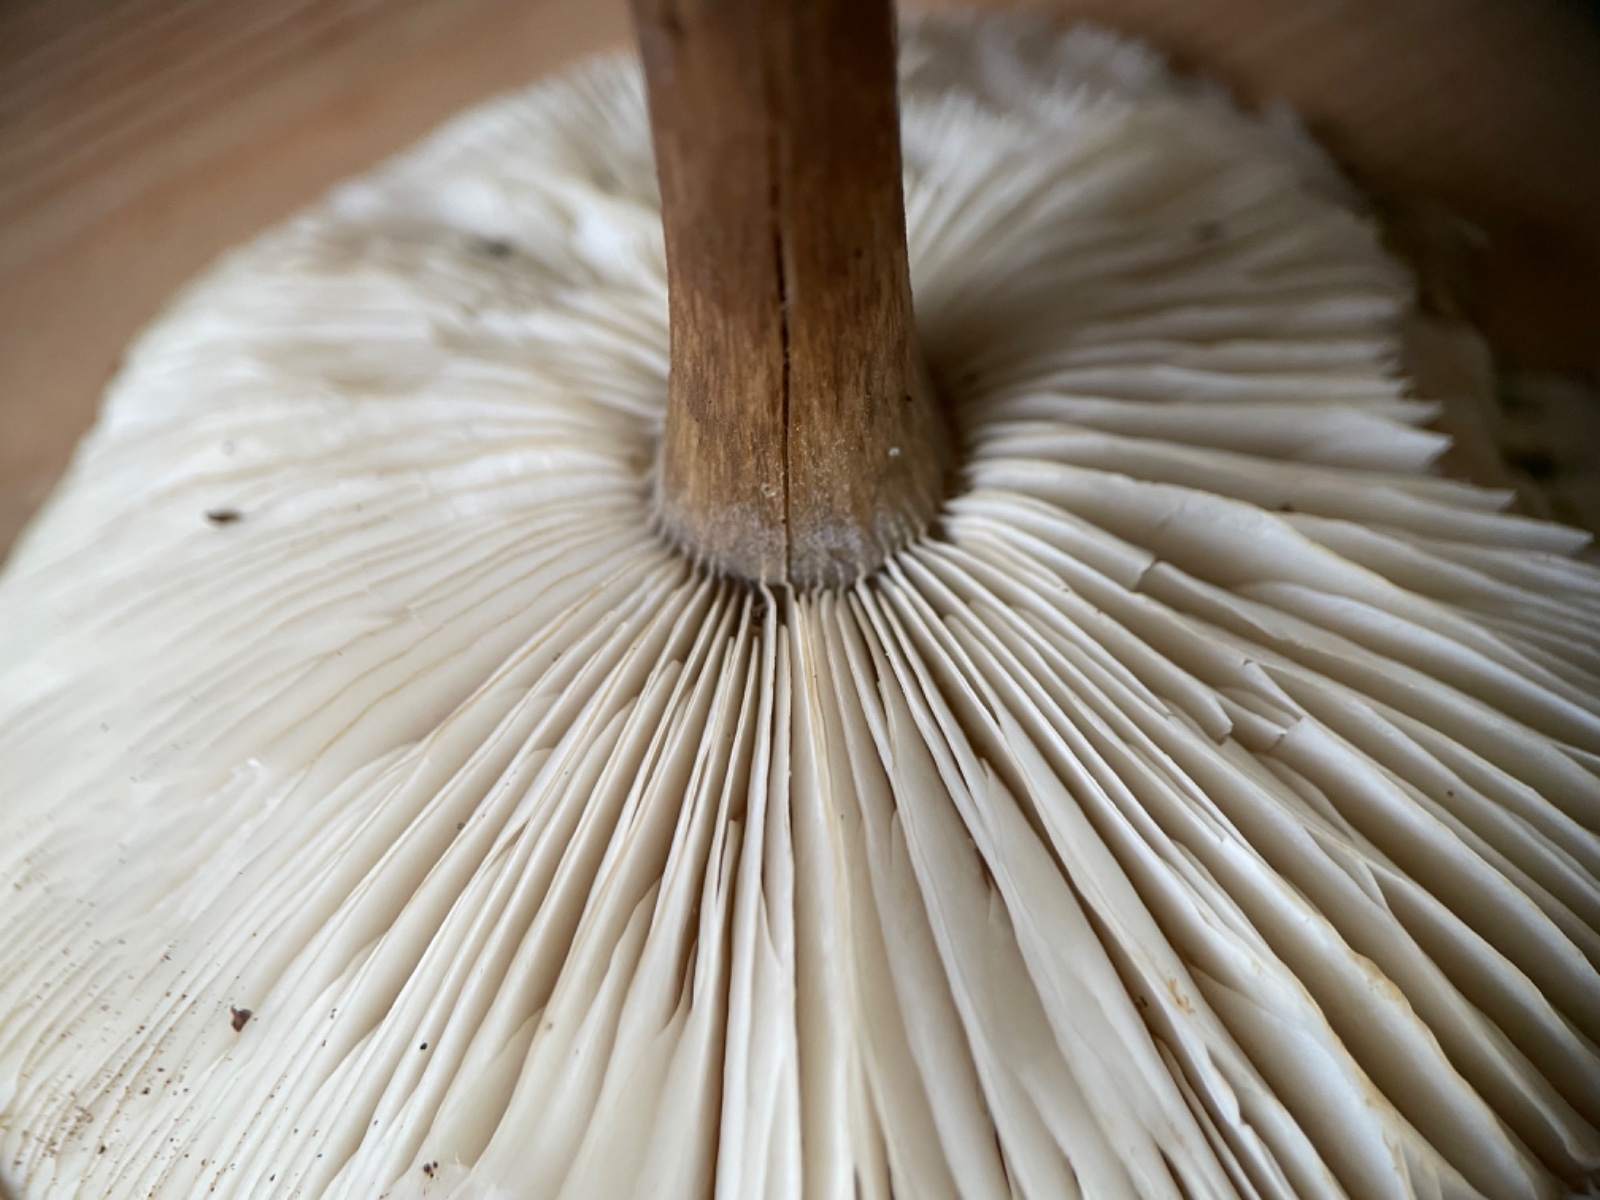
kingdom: Fungi
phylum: Basidiomycota
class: Agaricomycetes
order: Agaricales
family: Tricholomataceae
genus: Melanoleuca
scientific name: Melanoleuca
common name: munkehat
